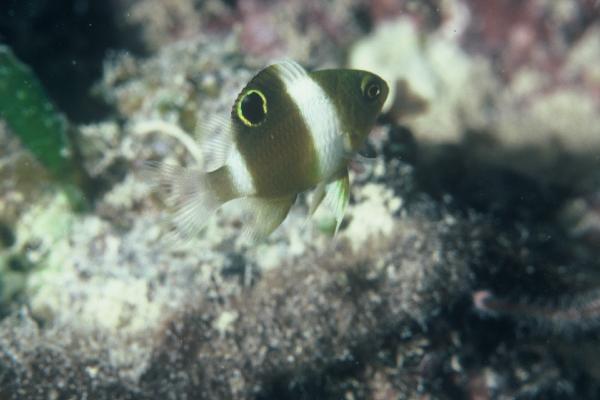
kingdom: Animalia
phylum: Chordata
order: Perciformes
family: Pomacentridae
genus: Dischistodus
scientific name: Dischistodus
